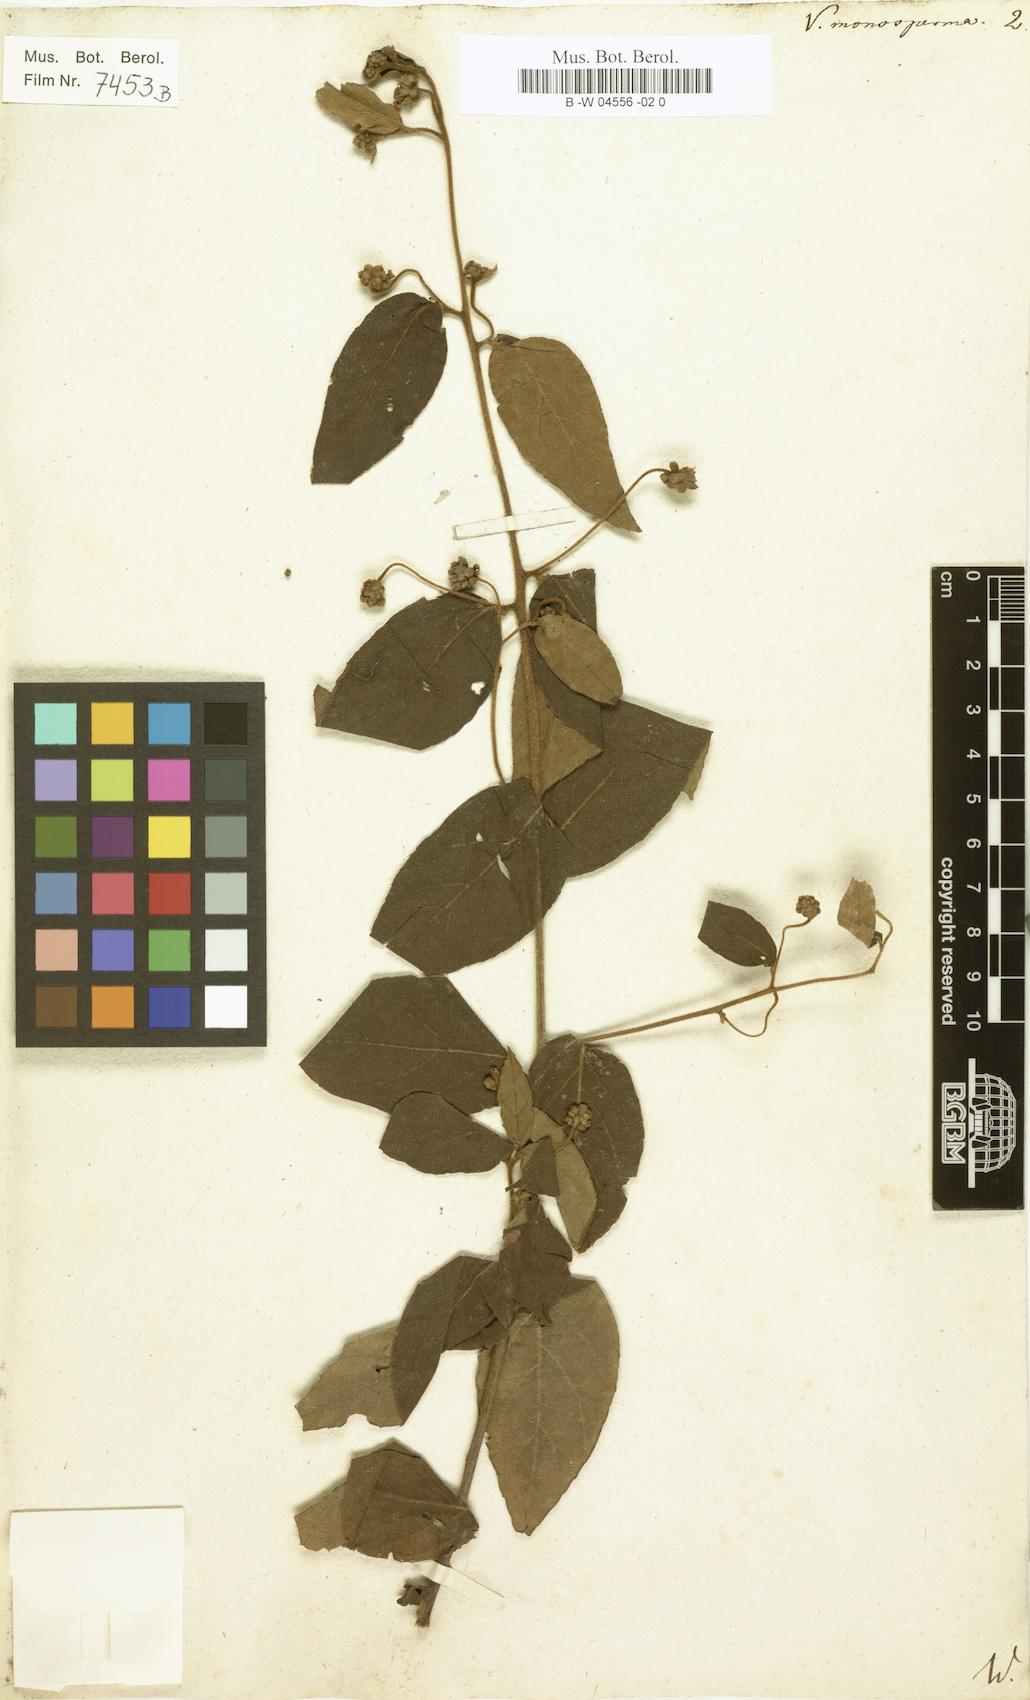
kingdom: Plantae
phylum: Tracheophyta
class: Magnoliopsida
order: Boraginales
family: Cordiaceae
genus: Varronia
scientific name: Varronia polycephala
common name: Black-sage
